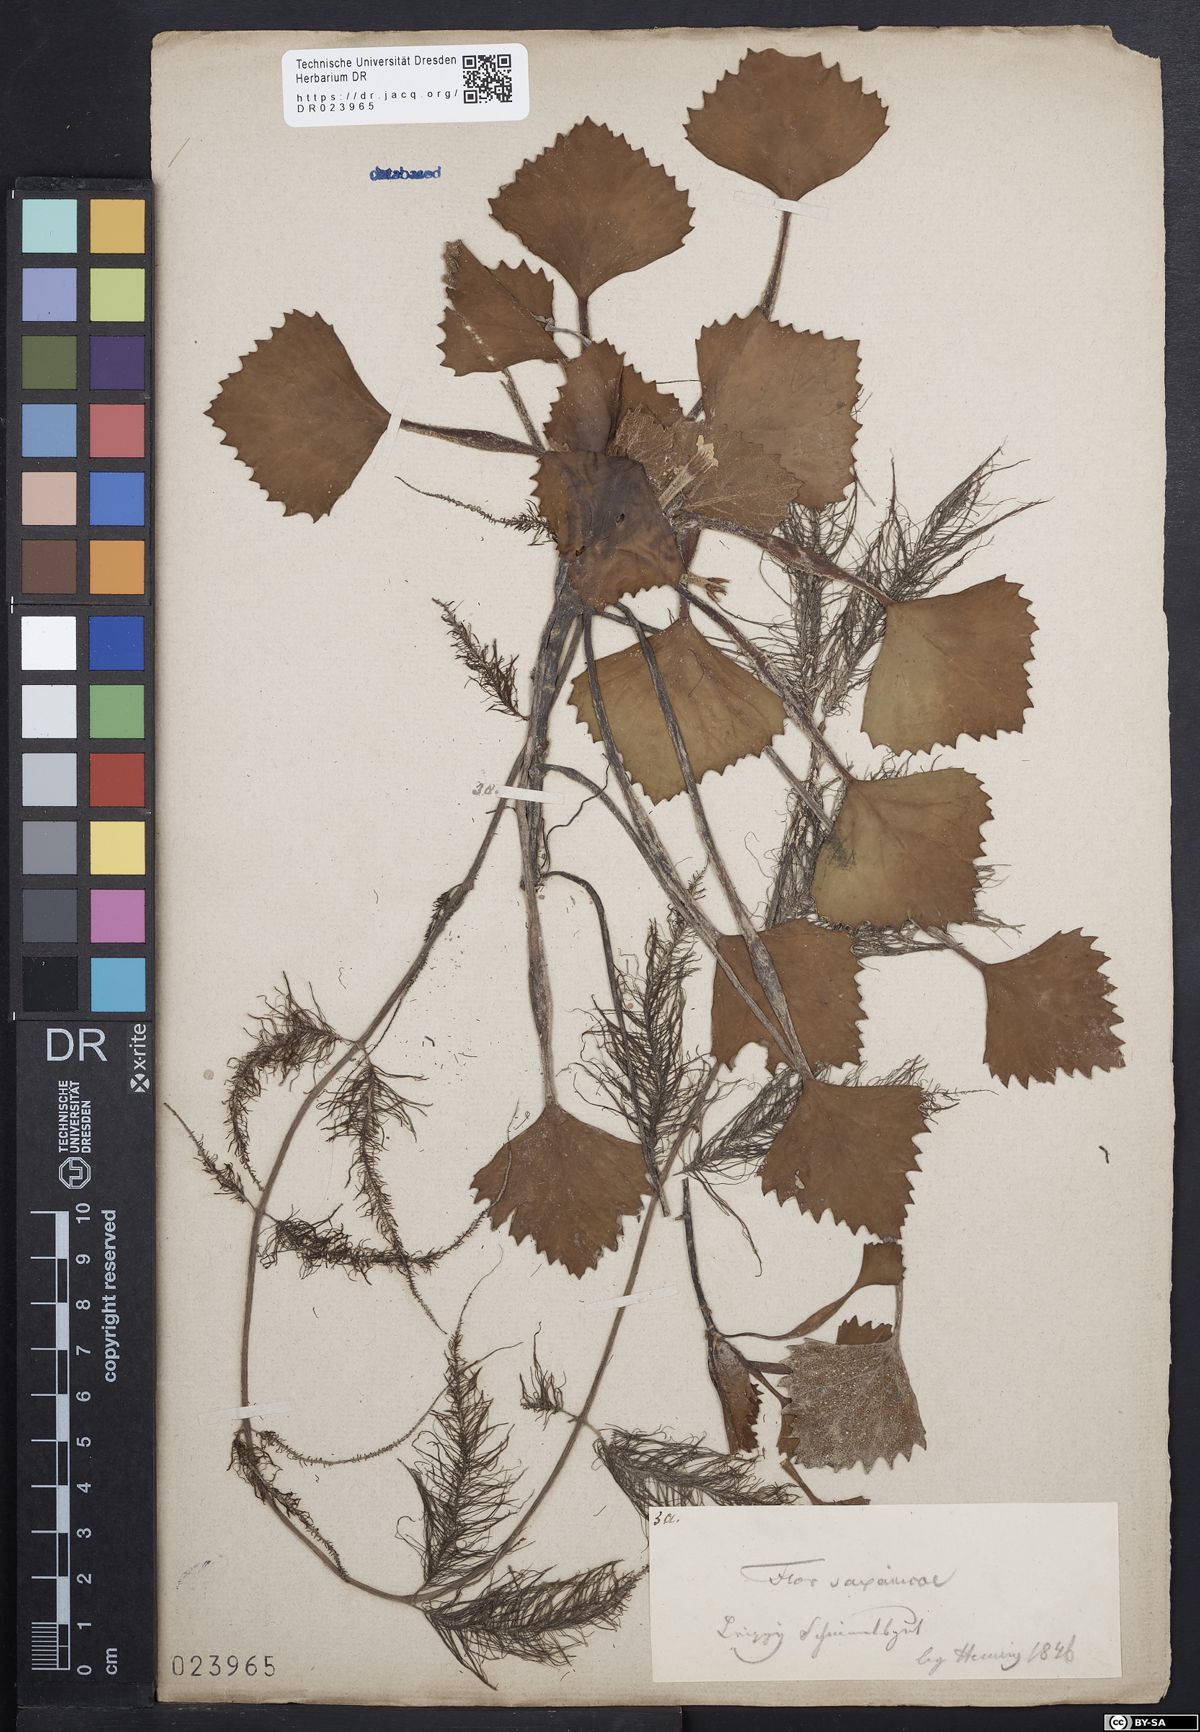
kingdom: Plantae
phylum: Tracheophyta
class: Magnoliopsida
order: Myrtales
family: Lythraceae
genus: Trapa
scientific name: Trapa natans
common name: Water chestnut
